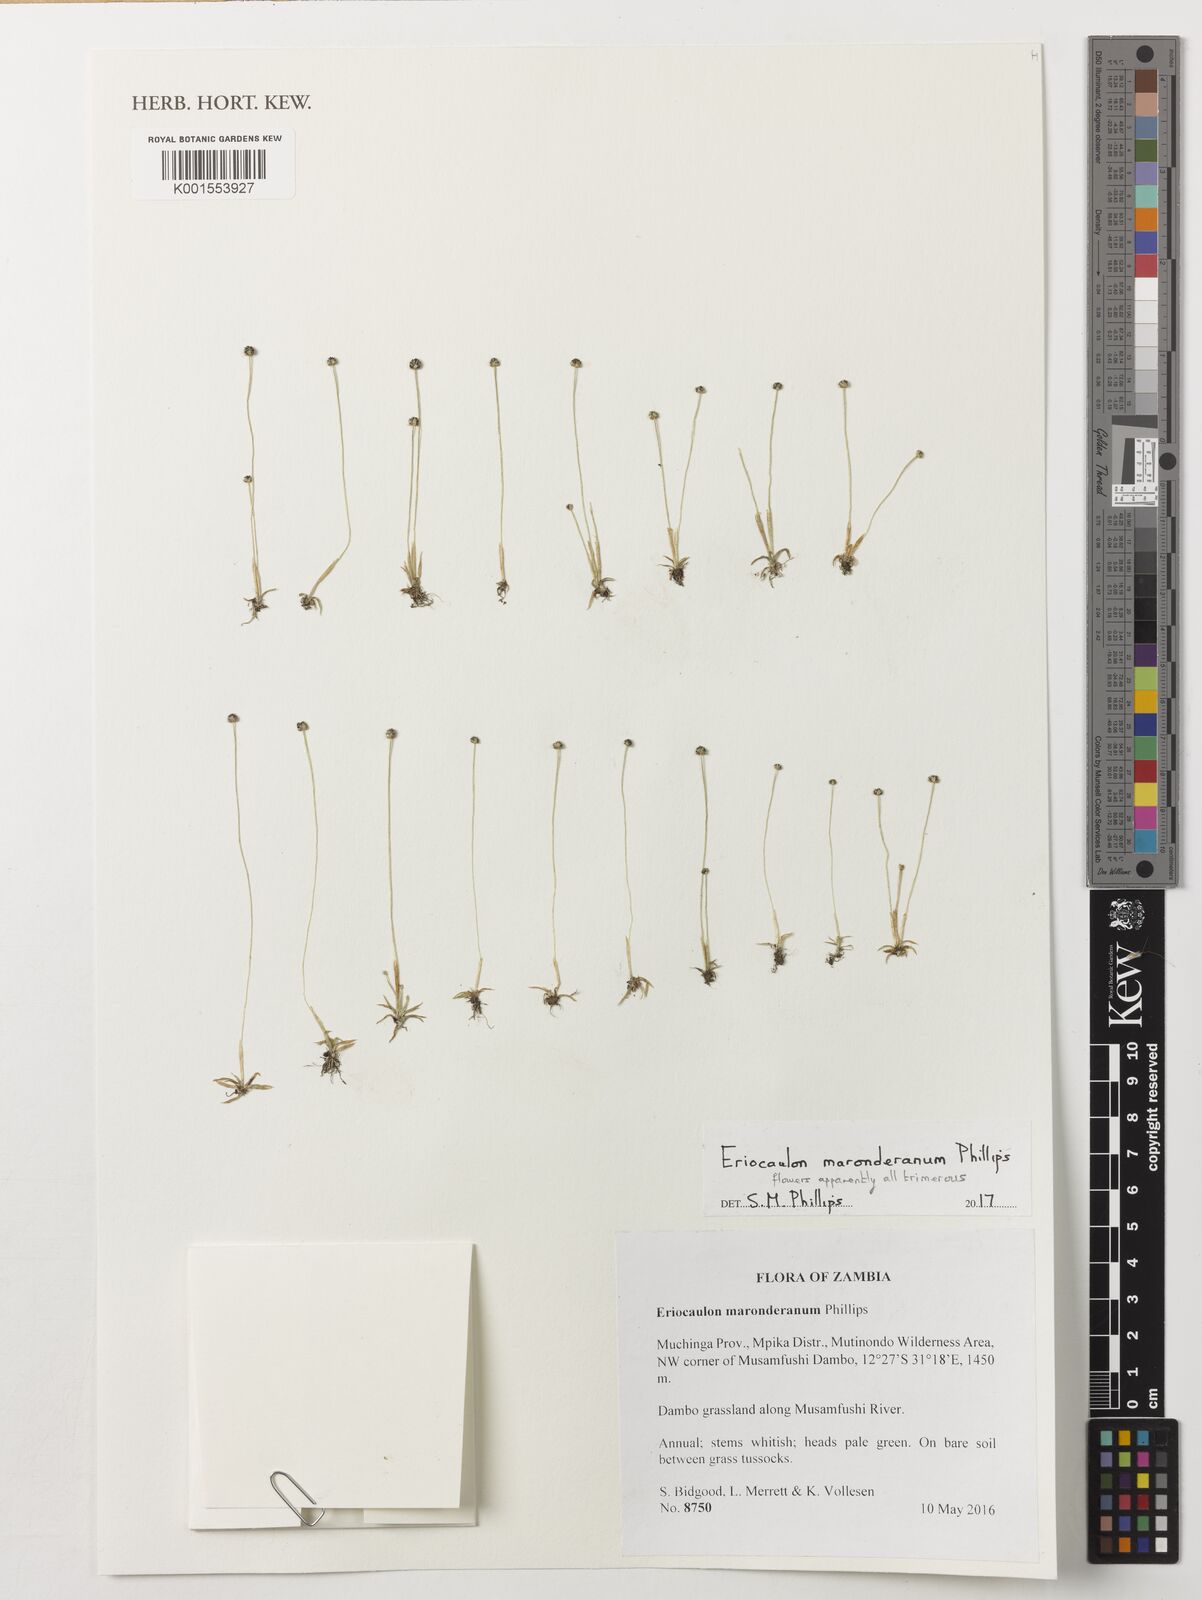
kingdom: Plantae
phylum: Tracheophyta
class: Liliopsida
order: Poales
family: Eriocaulaceae
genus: Eriocaulon
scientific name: Eriocaulon maronderanum
